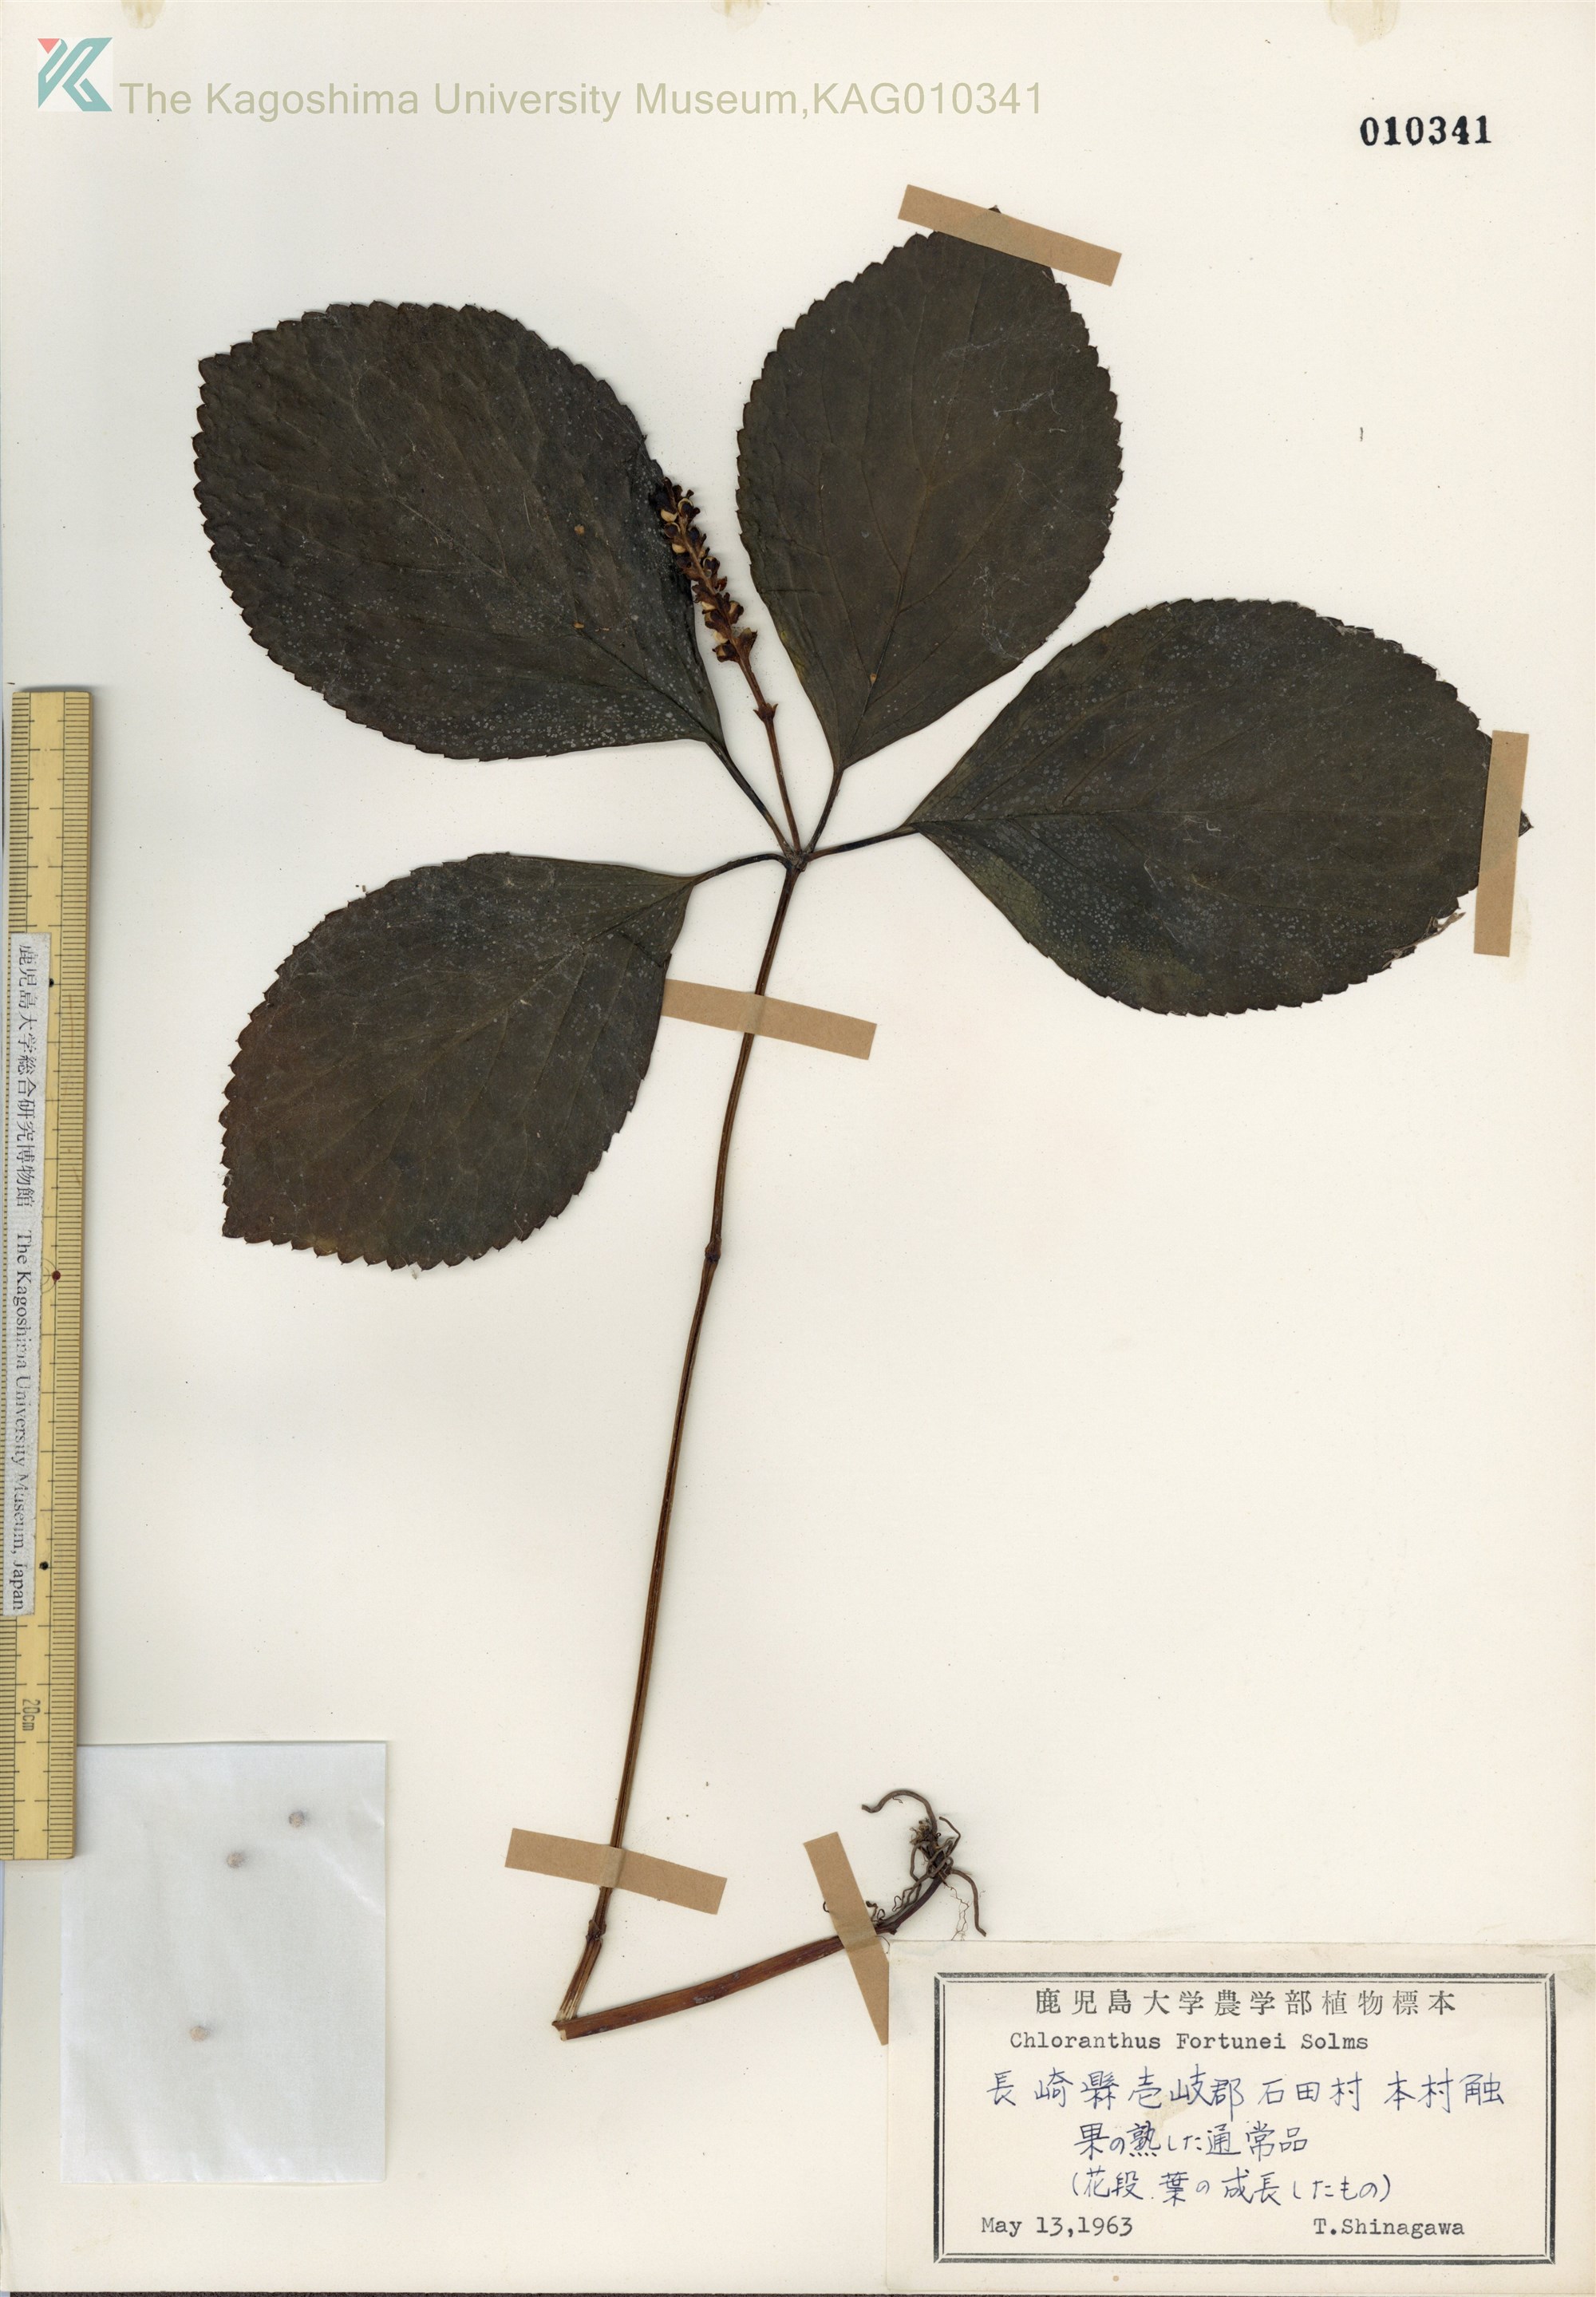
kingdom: Plantae
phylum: Tracheophyta
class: Magnoliopsida
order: Chloranthales
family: Chloranthaceae
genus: Chloranthus
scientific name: Chloranthus fortunei
